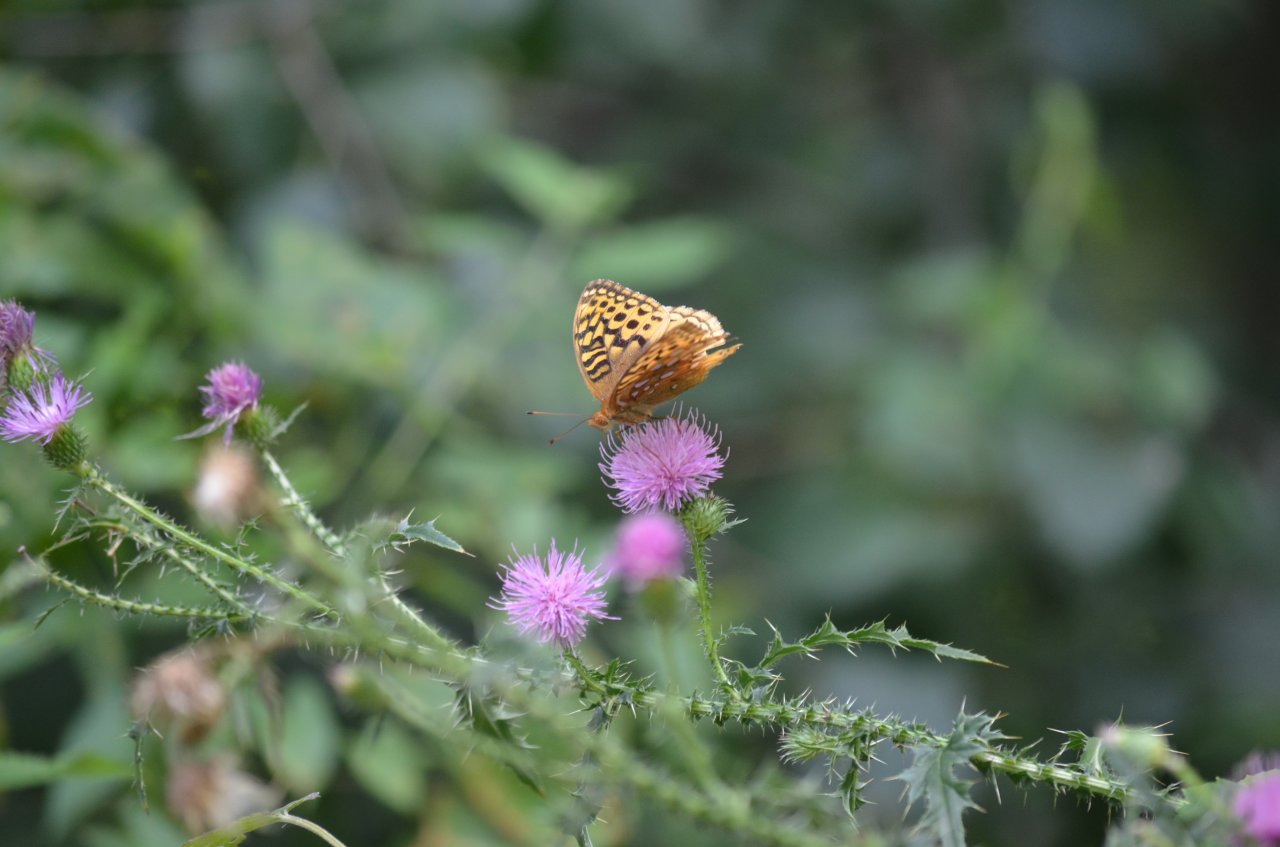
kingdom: Animalia
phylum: Arthropoda
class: Insecta
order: Lepidoptera
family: Nymphalidae
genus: Speyeria
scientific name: Speyeria cybele
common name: Great Spangled Fritillary
